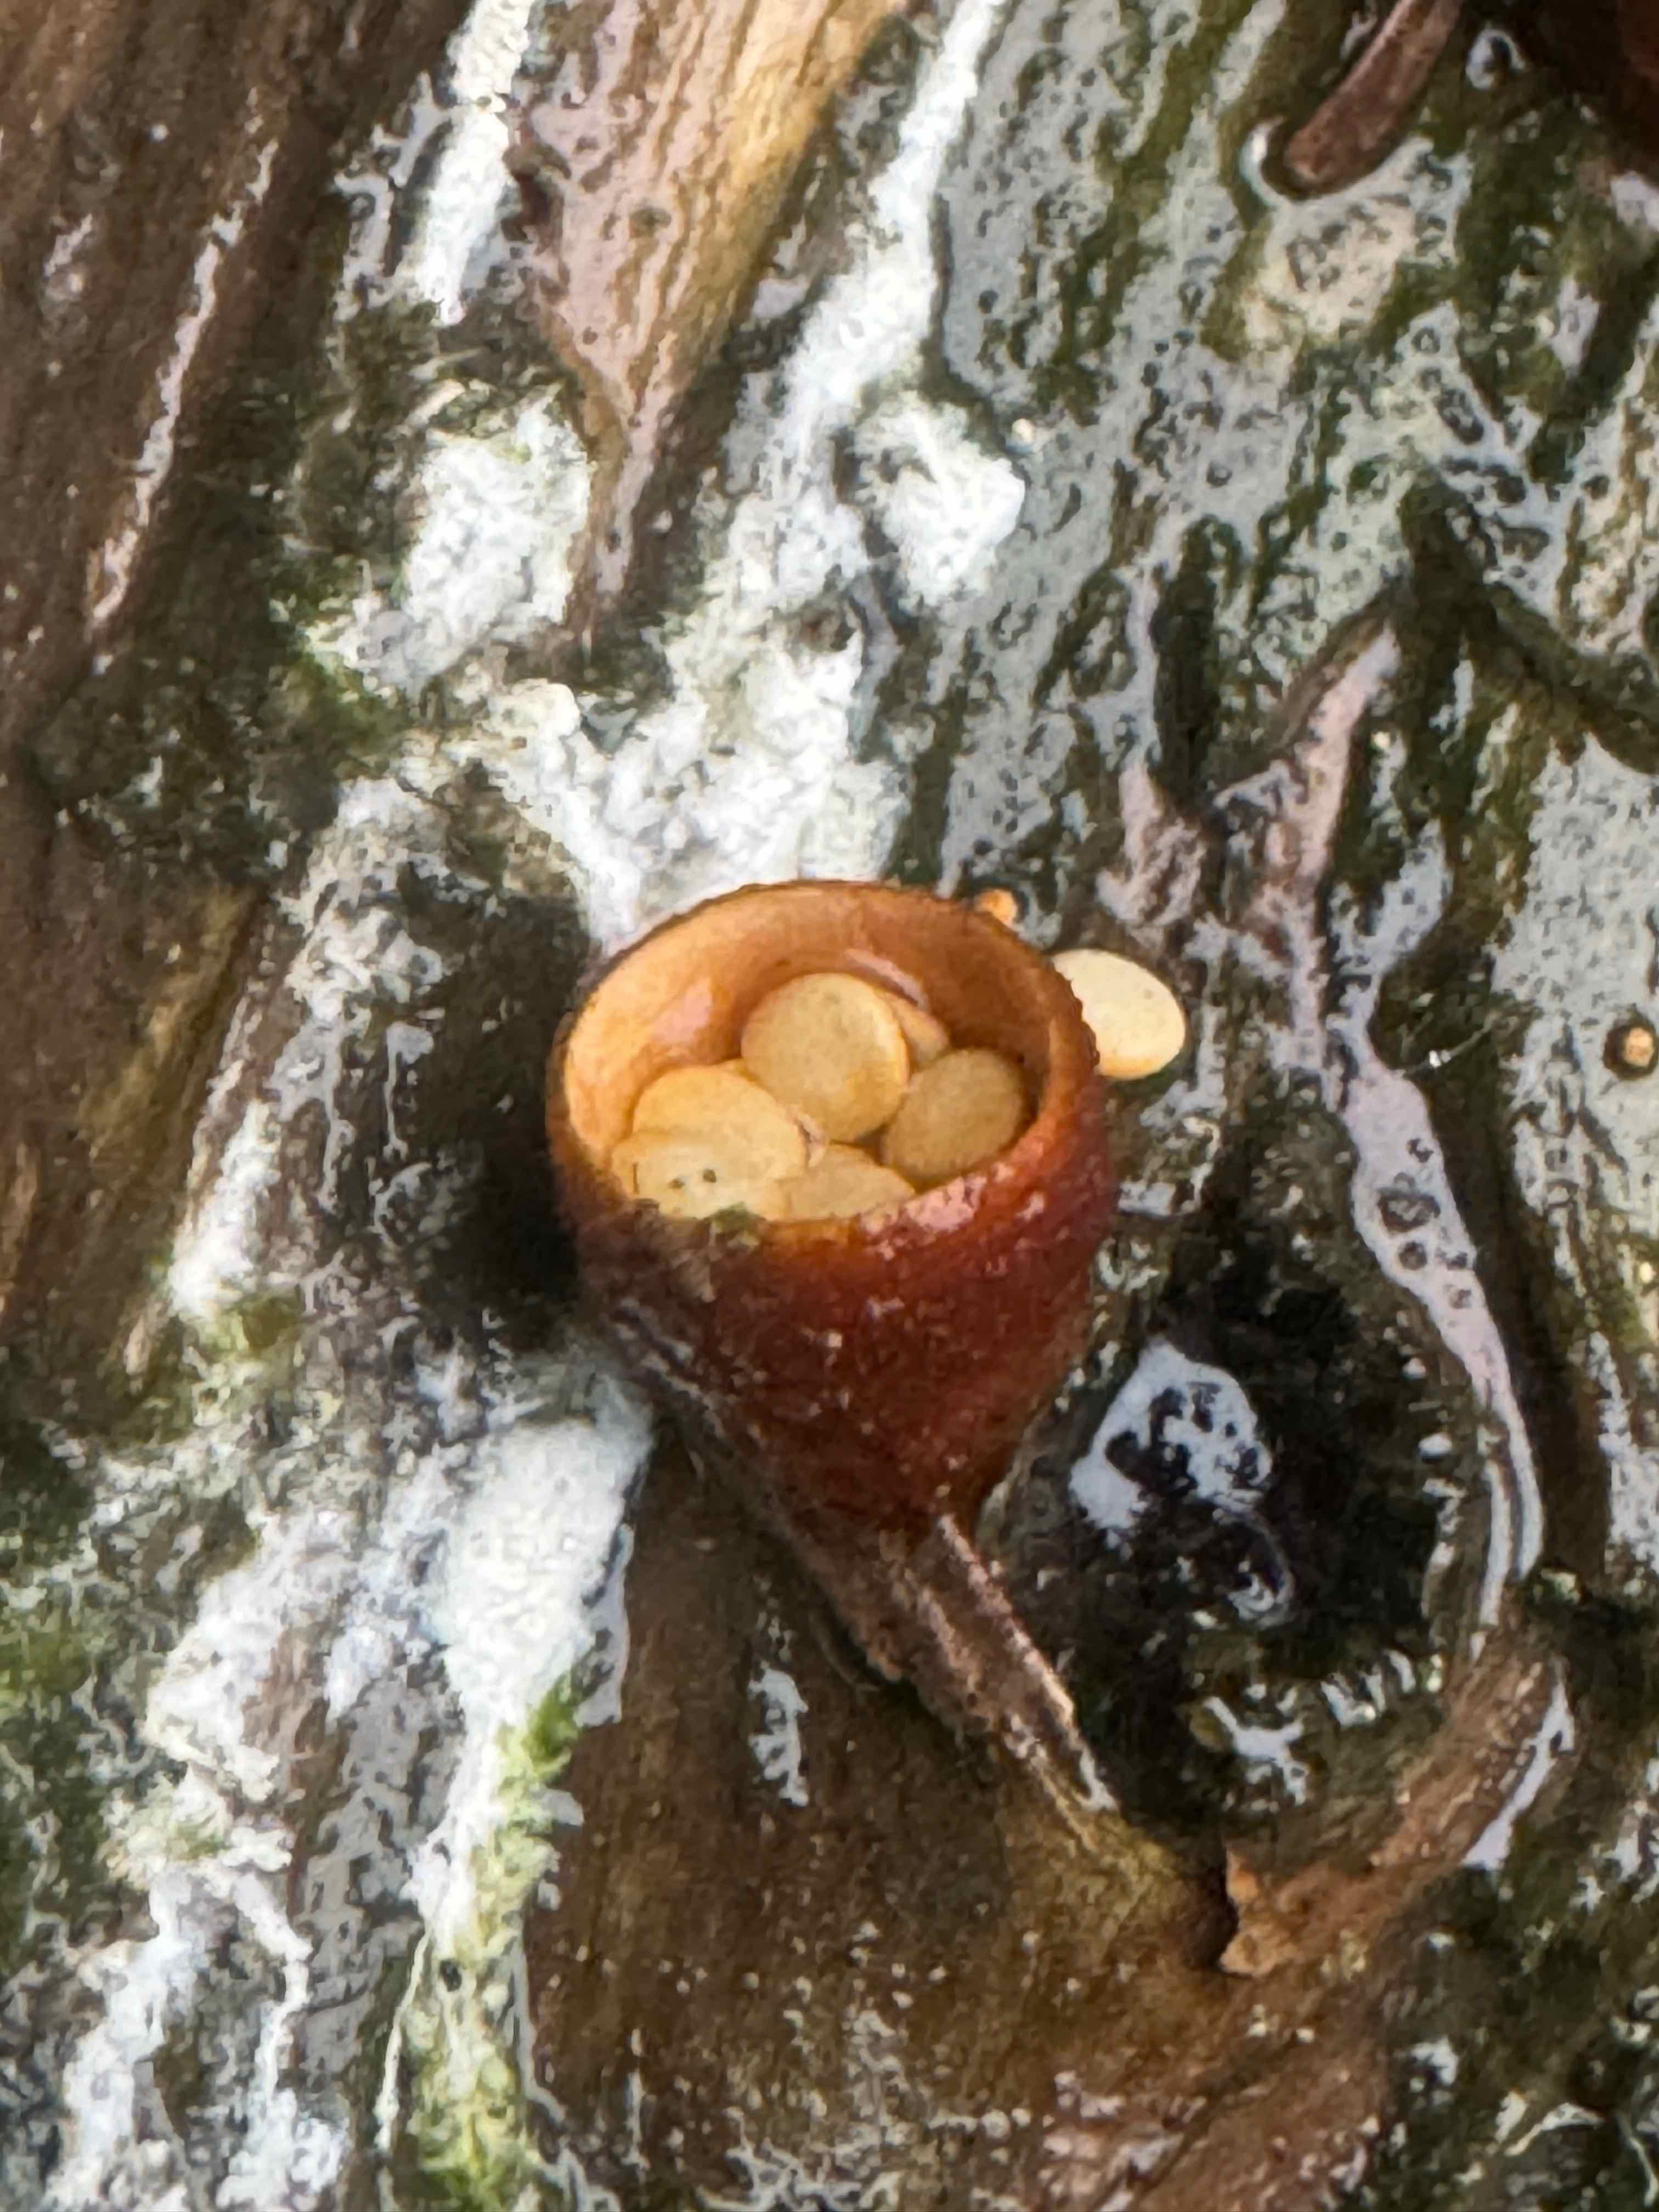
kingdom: Fungi
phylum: Basidiomycota
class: Agaricomycetes
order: Agaricales
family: Nidulariaceae
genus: Crucibulum
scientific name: Crucibulum crucibuliforme
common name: krukkesvamp
